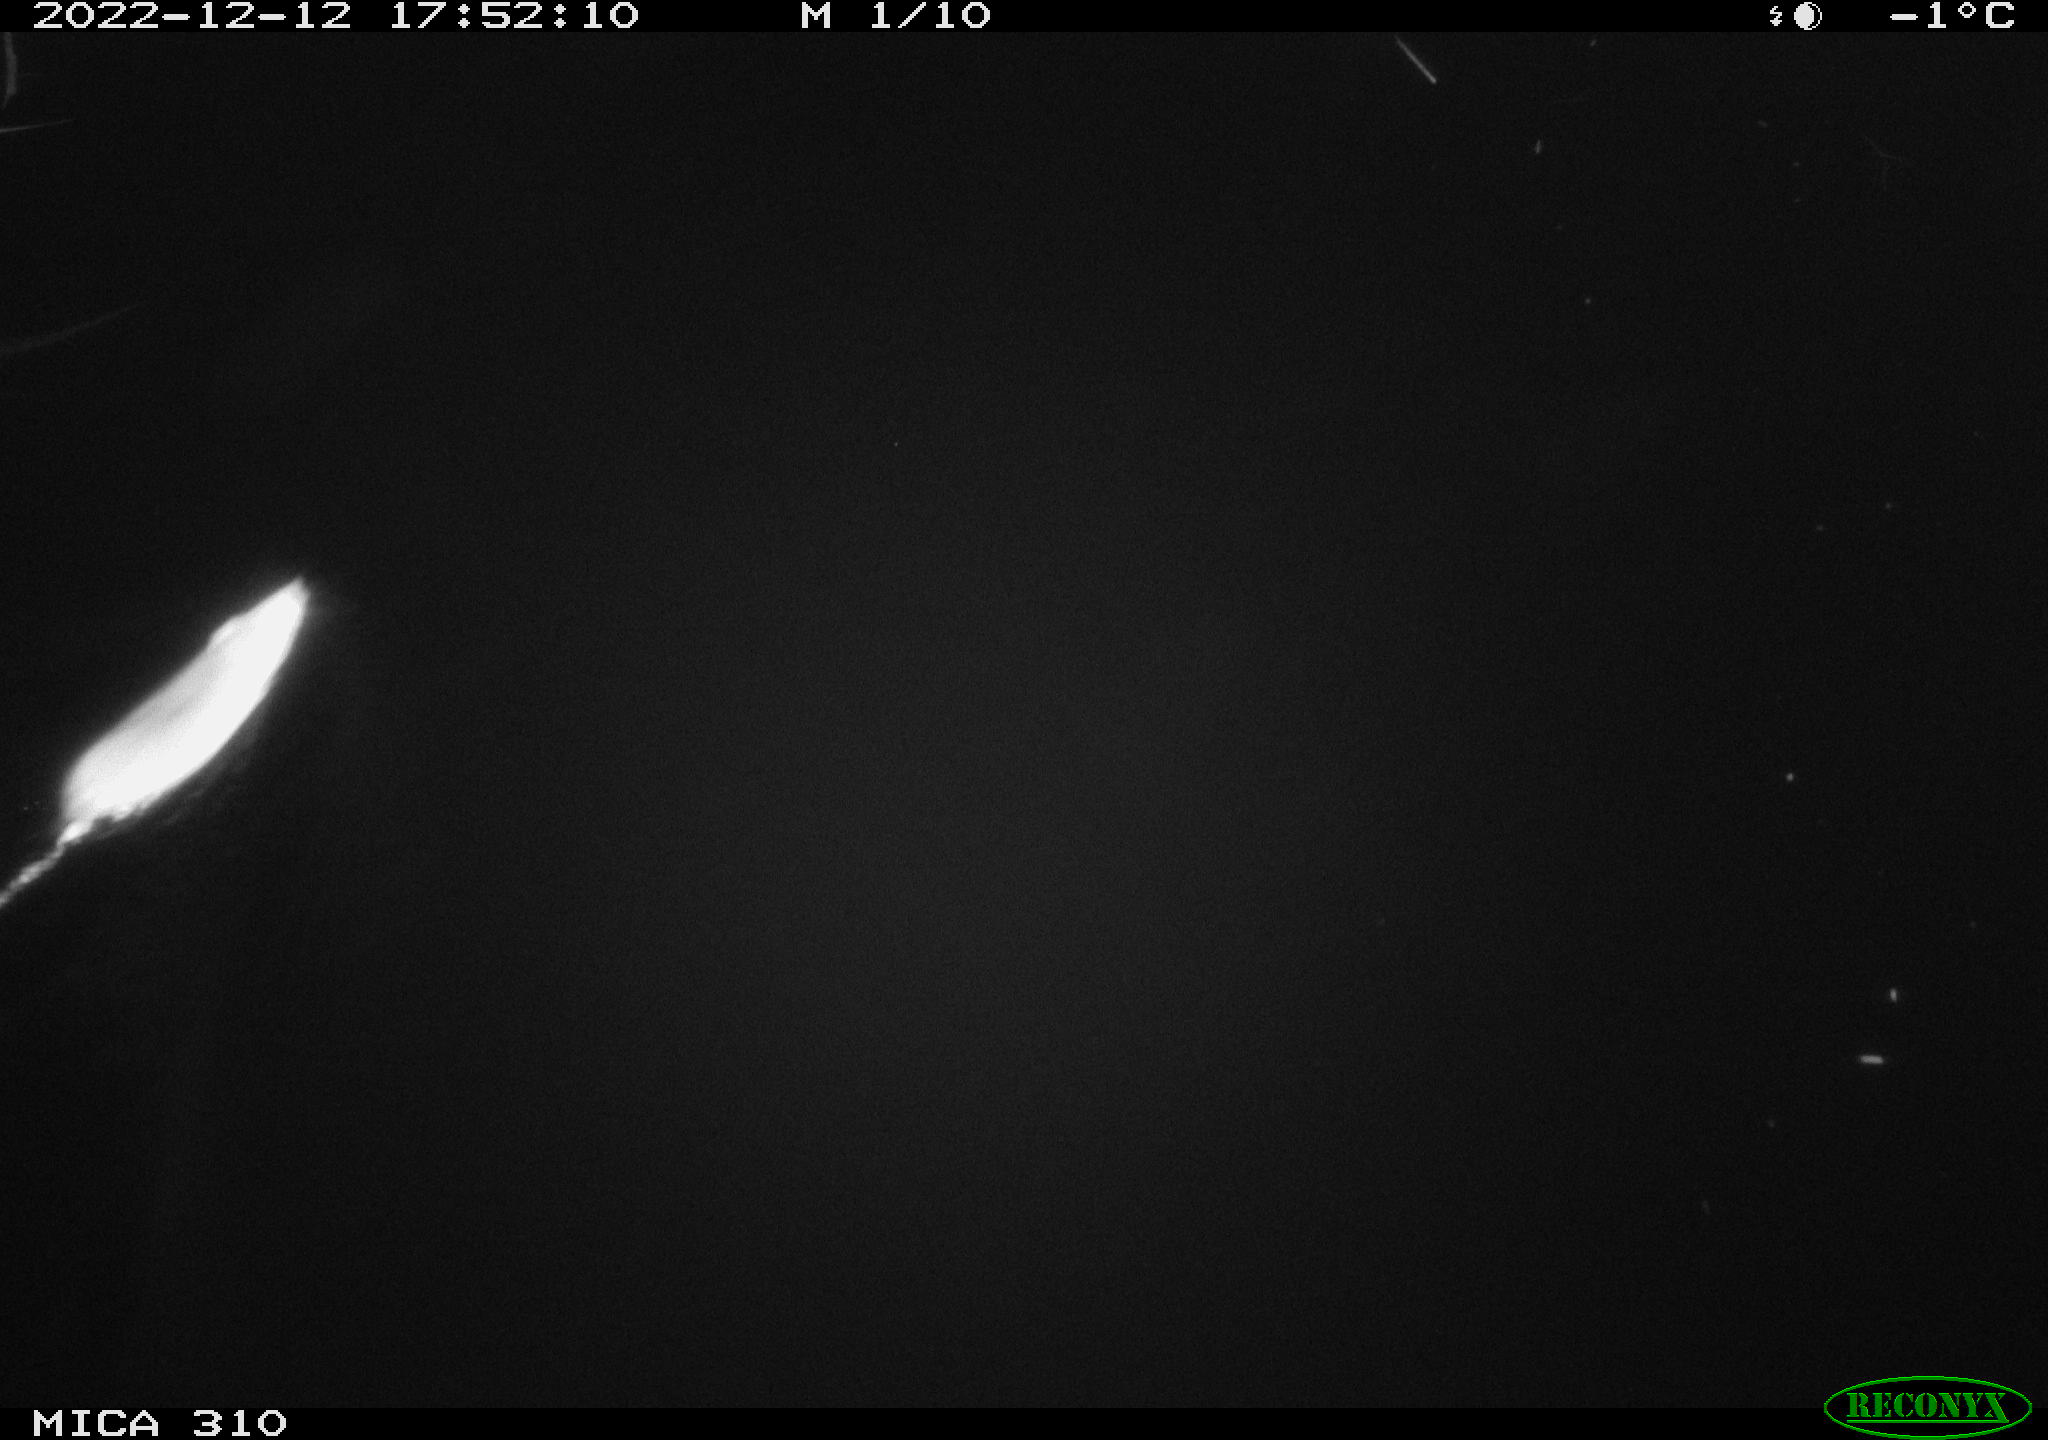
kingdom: Animalia
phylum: Chordata
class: Mammalia
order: Rodentia
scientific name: Rodentia
